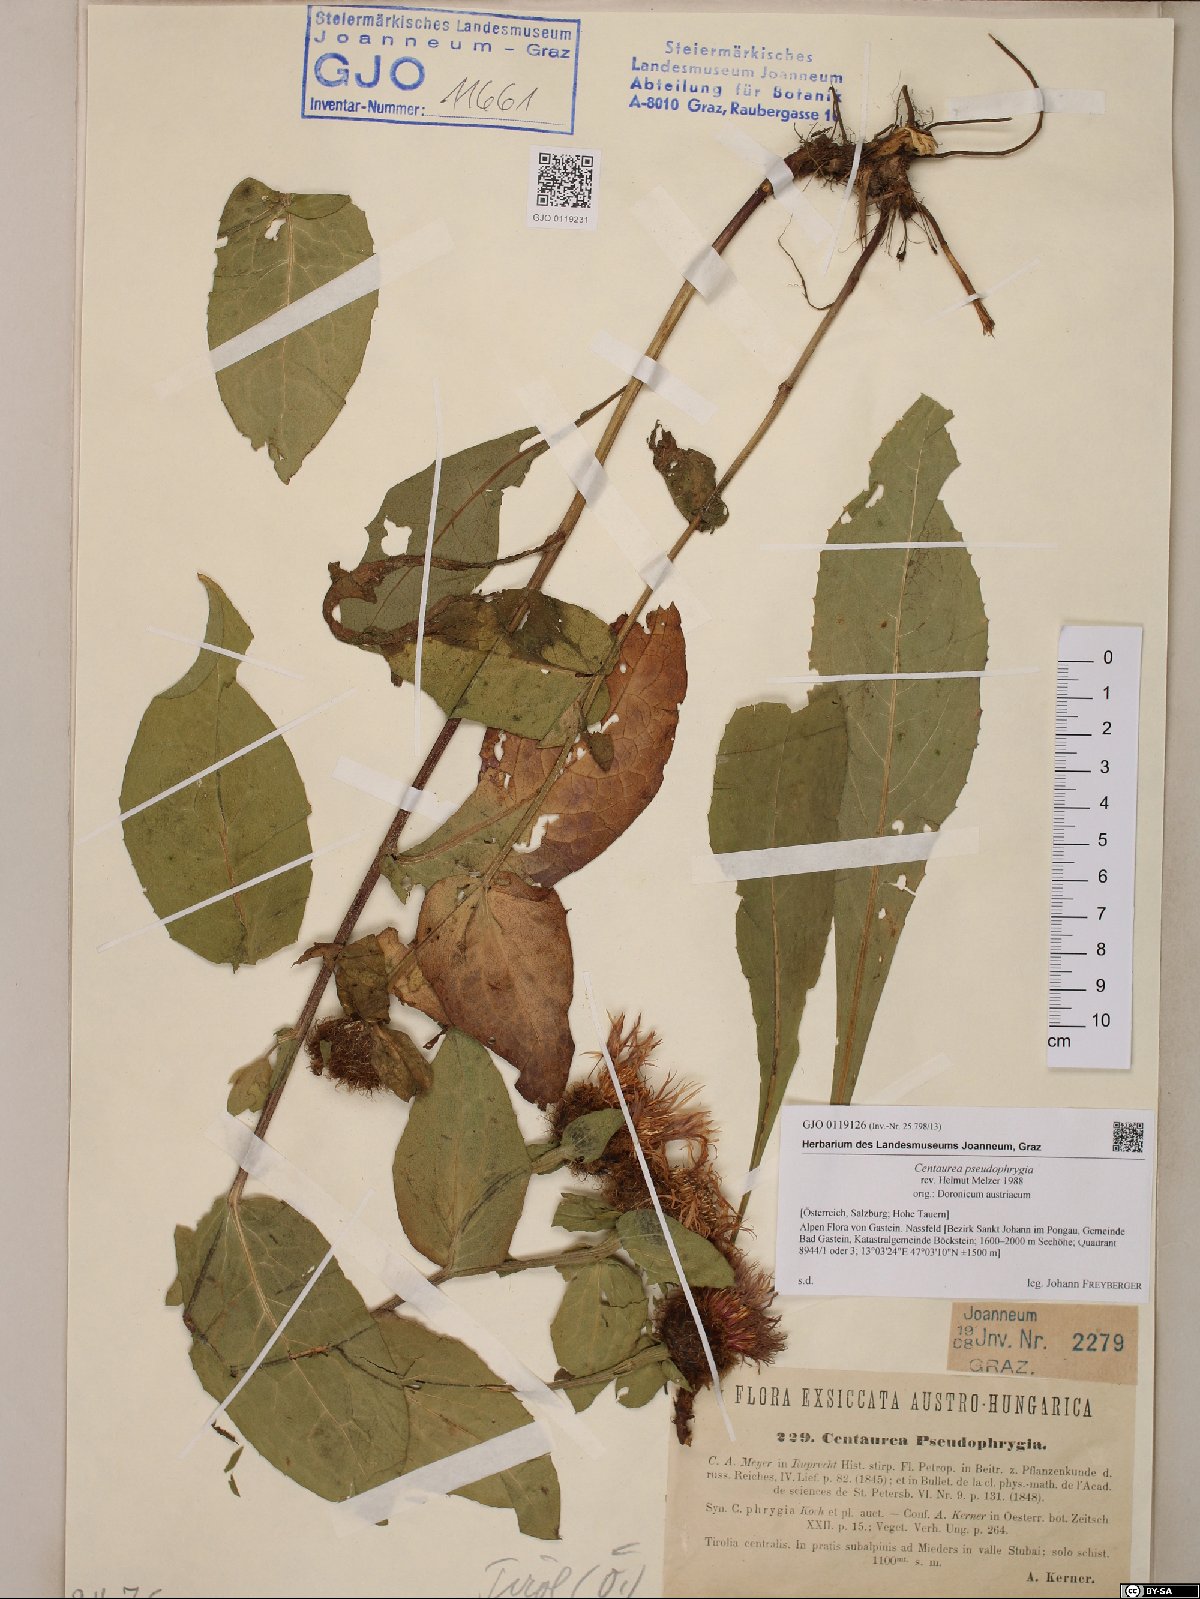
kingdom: Plantae
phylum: Tracheophyta
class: Magnoliopsida
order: Asterales
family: Asteraceae
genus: Centaurea
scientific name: Centaurea pseudophrygia
